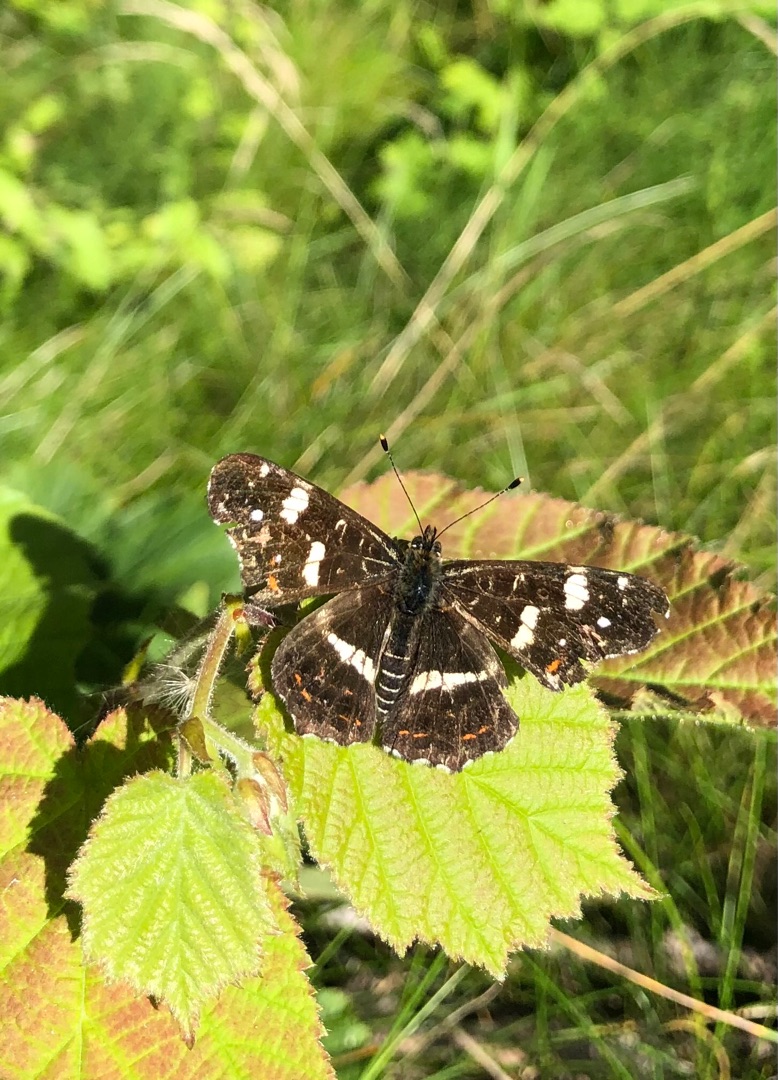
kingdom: Animalia
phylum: Arthropoda
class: Insecta
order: Lepidoptera
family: Nymphalidae
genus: Araschnia
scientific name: Araschnia levana
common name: Nældesommerfugl
